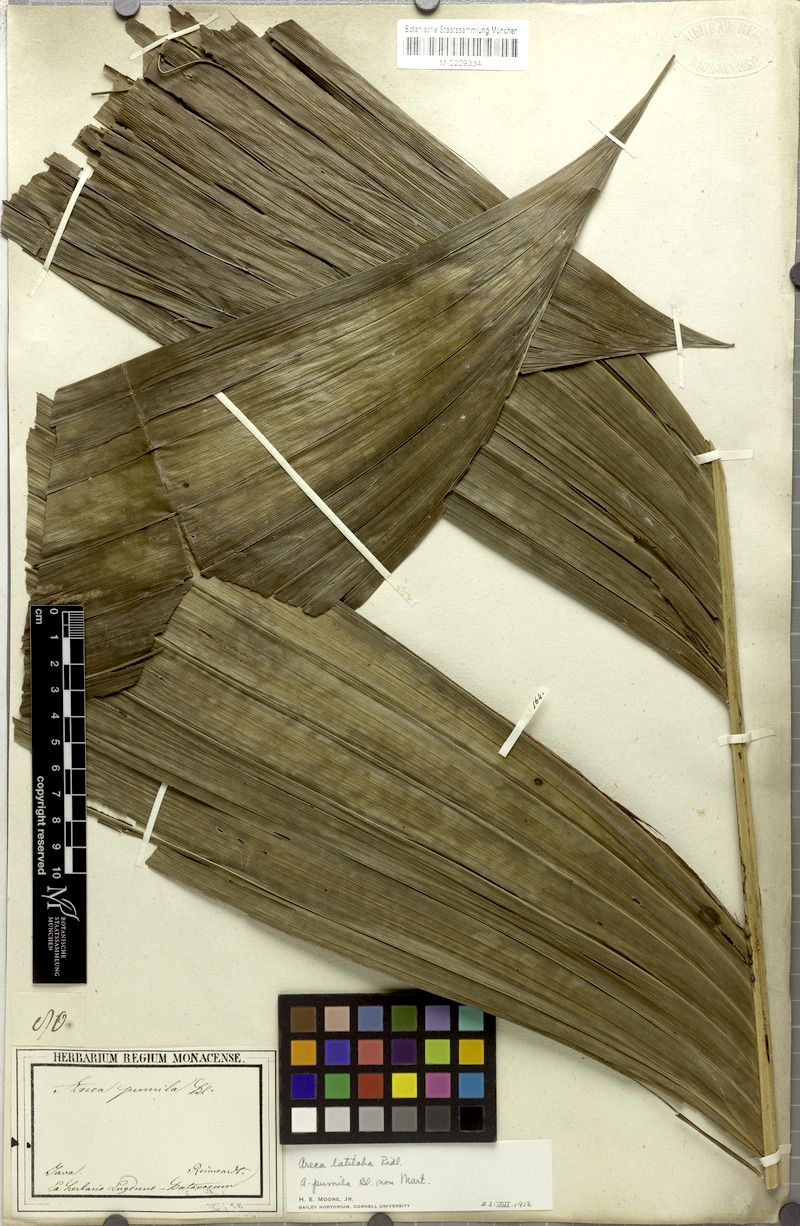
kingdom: Plantae
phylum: Tracheophyta
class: Liliopsida
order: Arecales
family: Arecaceae
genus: Nenga
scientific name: Nenga pumila
